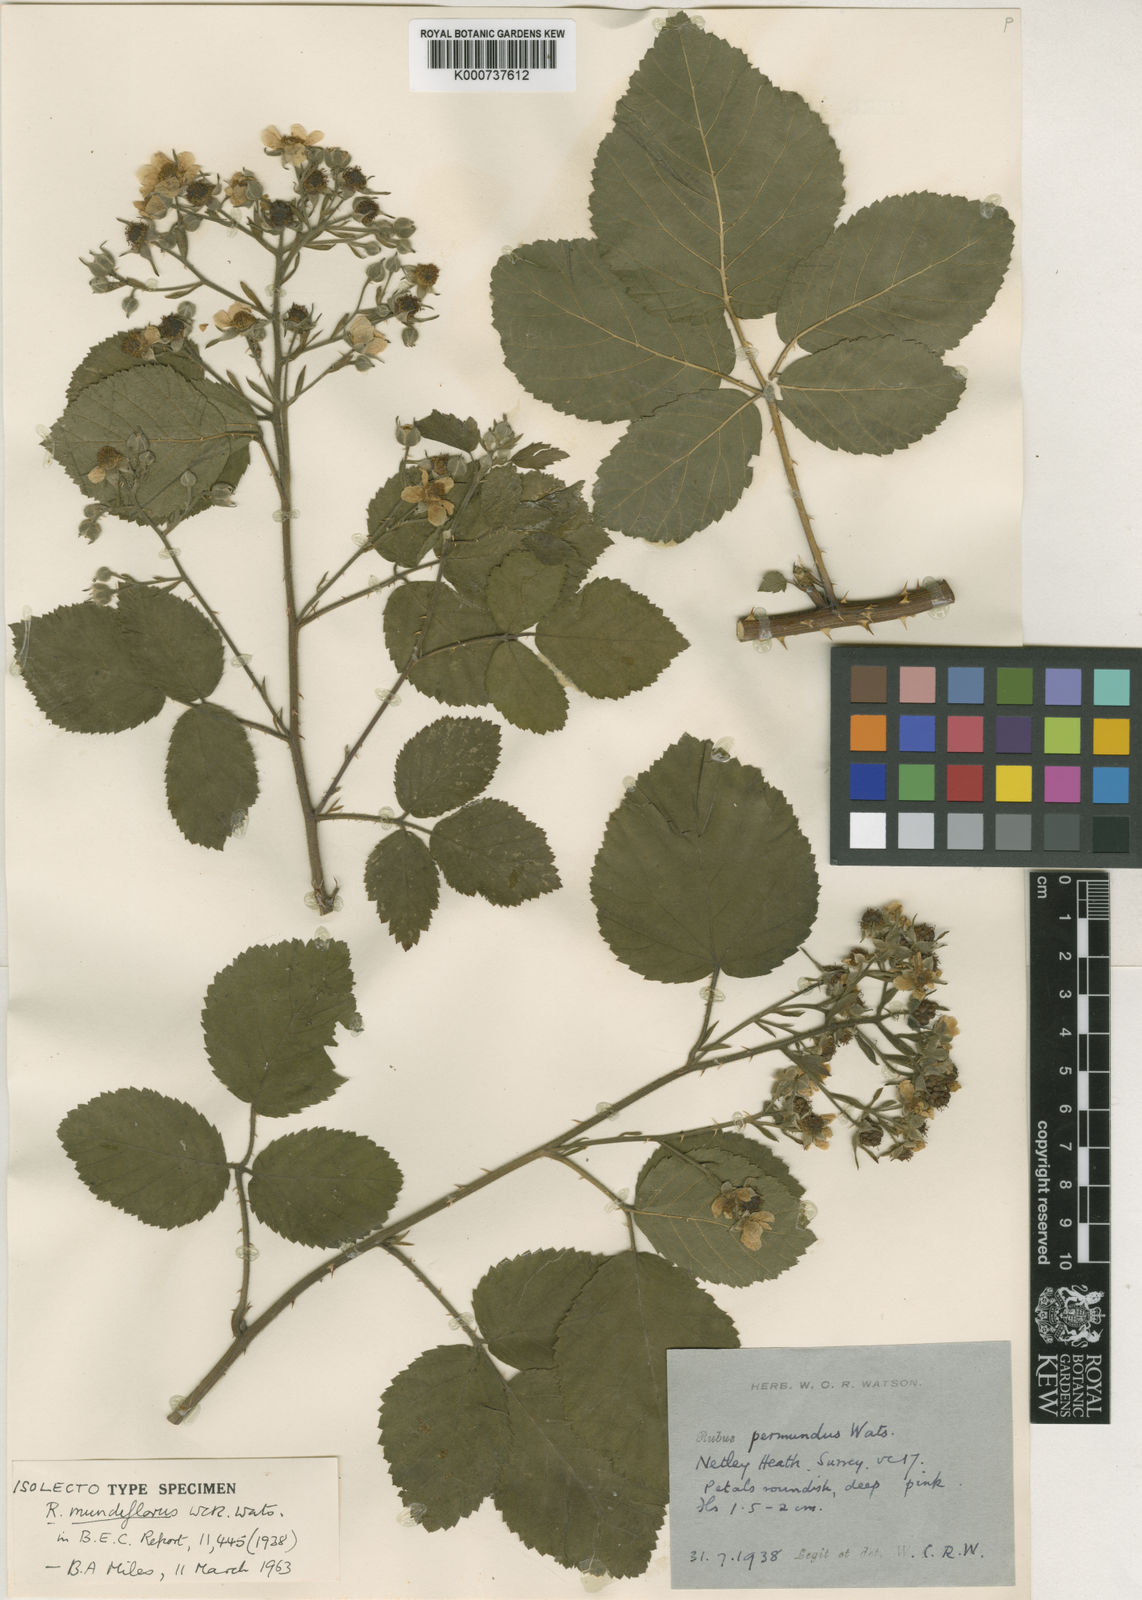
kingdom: Plantae
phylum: Tracheophyta
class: Magnoliopsida
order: Rosales
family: Rosaceae
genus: Rubus
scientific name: Rubus permundus
